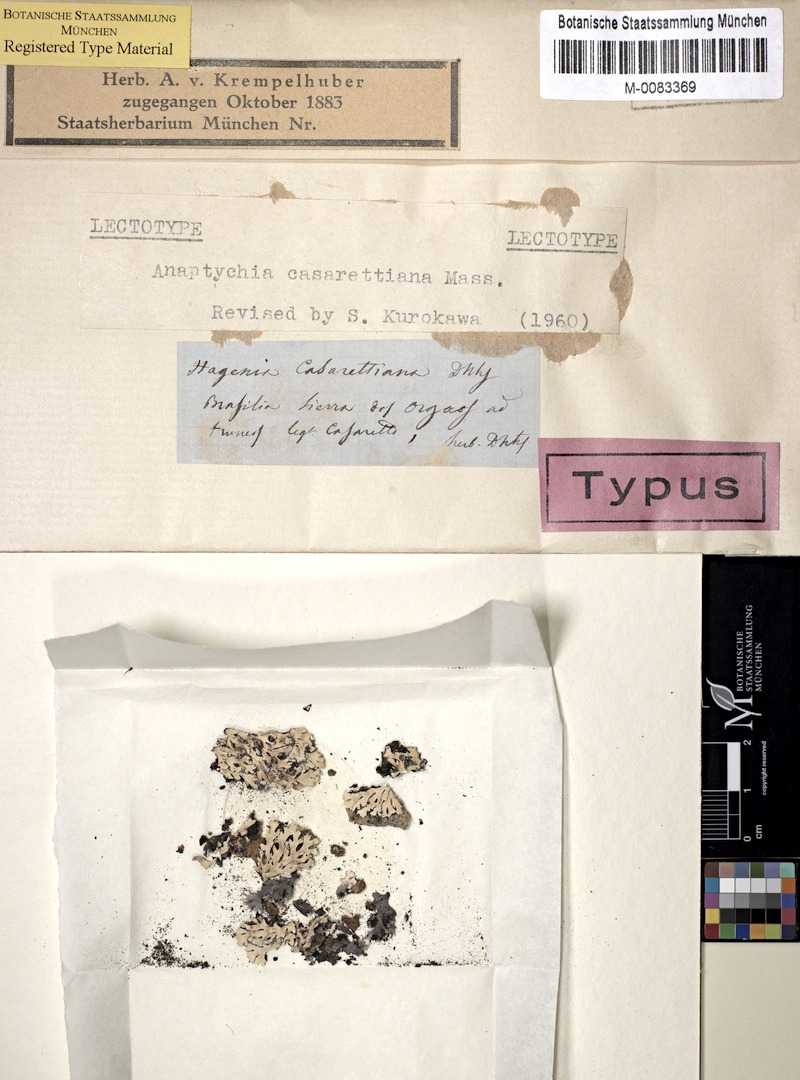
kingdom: Fungi
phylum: Ascomycota
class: Lecanoromycetes
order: Caliciales
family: Physciaceae
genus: Polyblastidium
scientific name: Polyblastidium casarettianum
